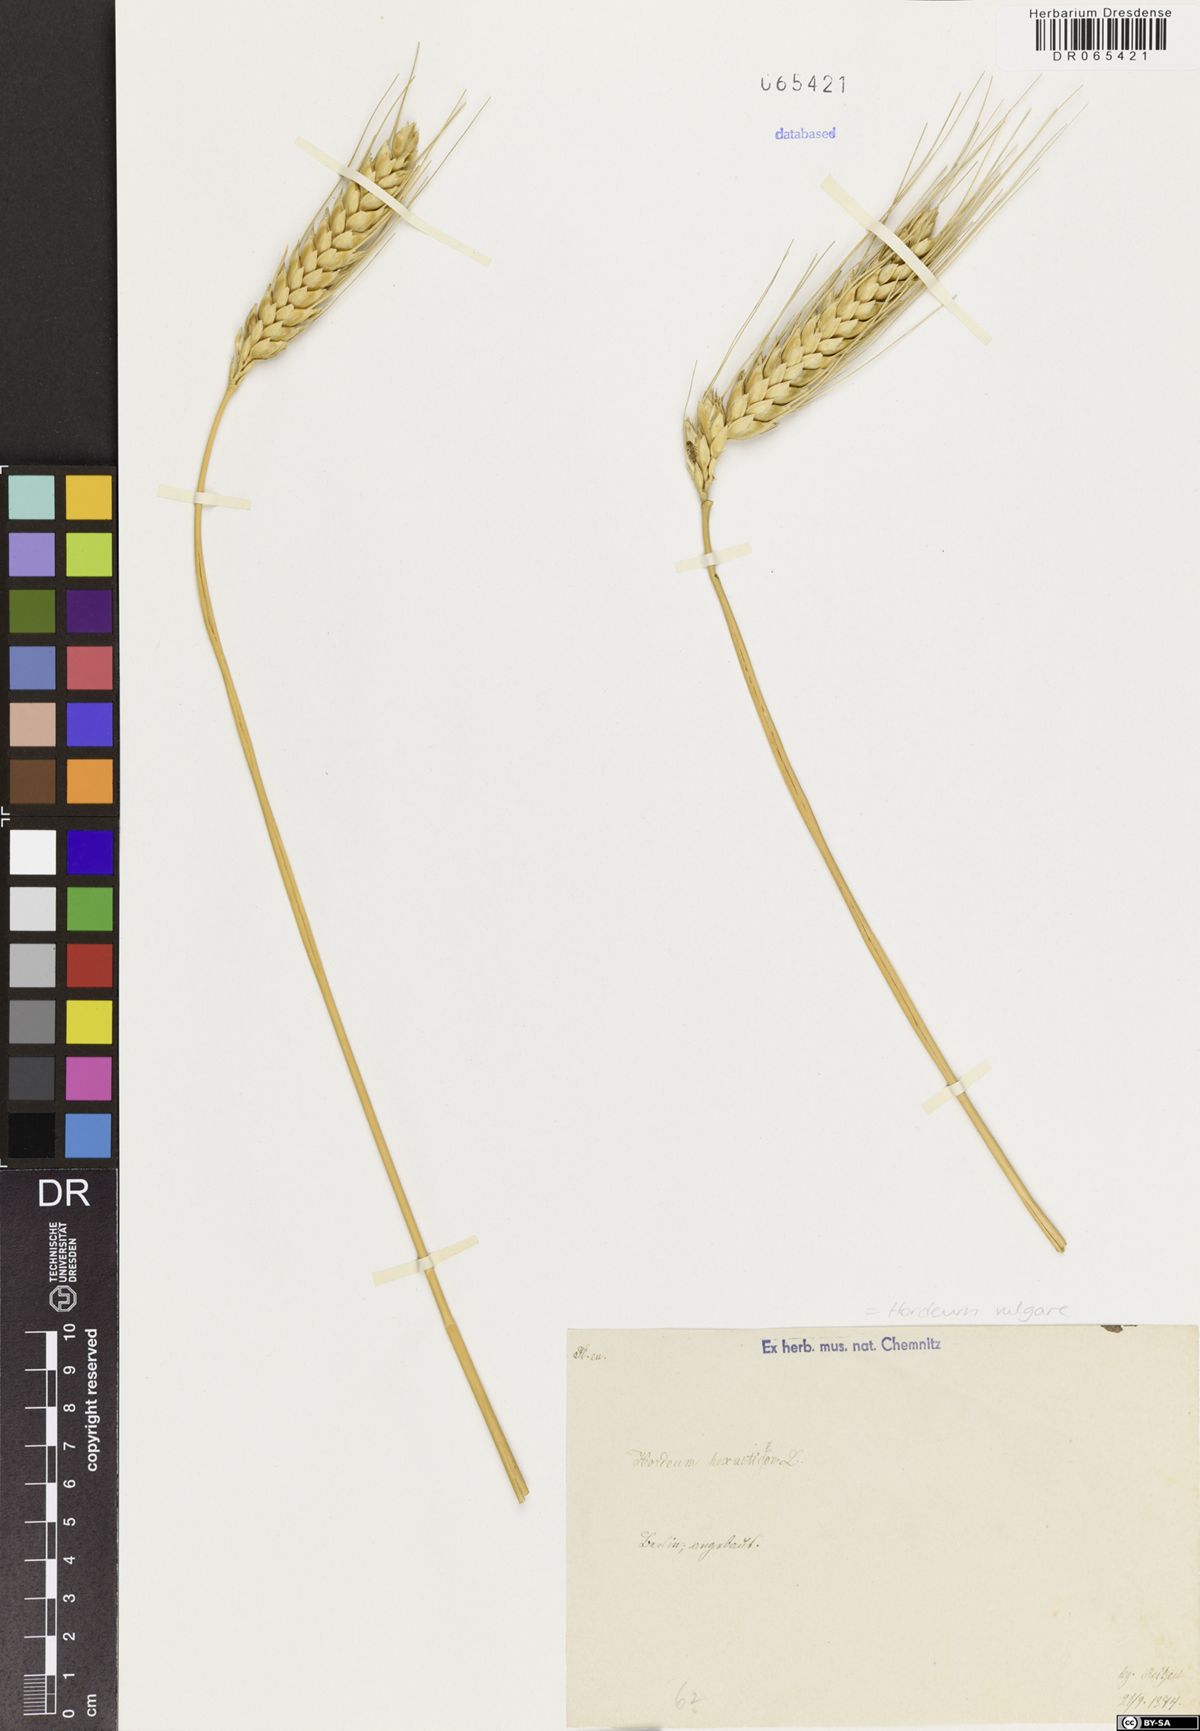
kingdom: Plantae
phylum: Tracheophyta
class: Liliopsida
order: Poales
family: Poaceae
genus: Hordeum
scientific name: Hordeum vulgare
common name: Common barley
